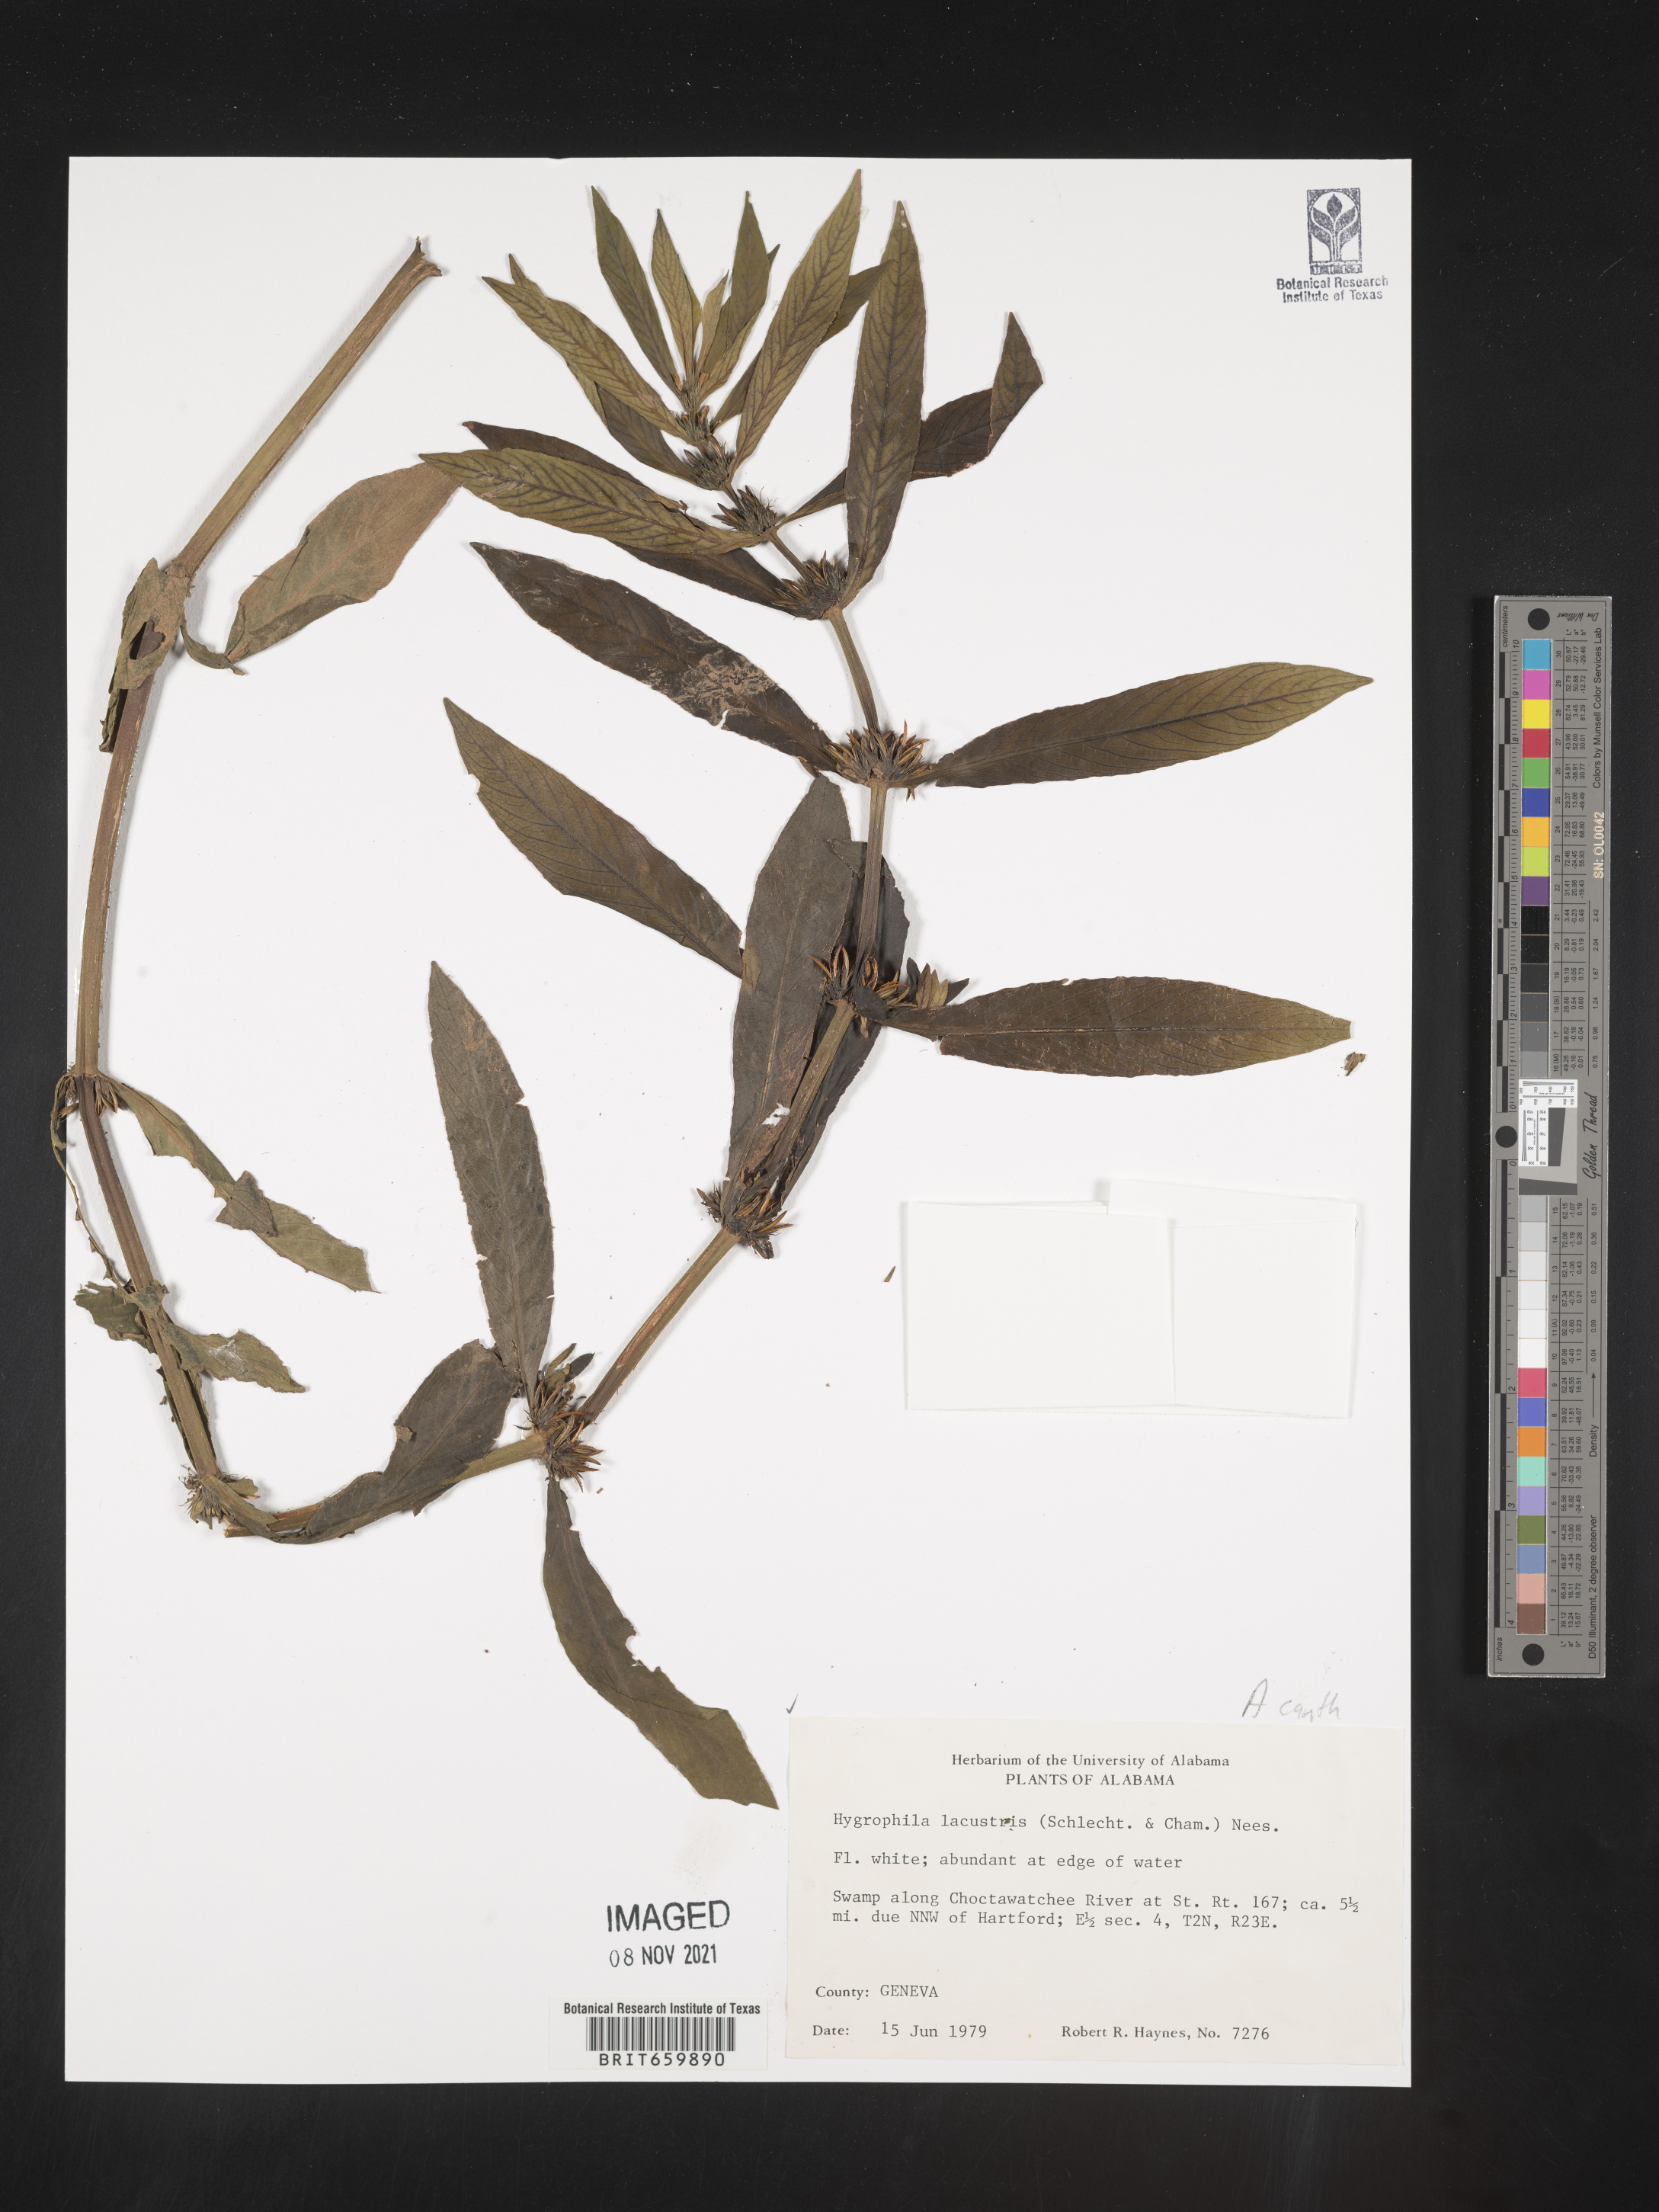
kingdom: Plantae
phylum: Tracheophyta
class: Magnoliopsida
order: Lamiales
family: Acanthaceae
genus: Hygrophila
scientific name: Hygrophila costata
